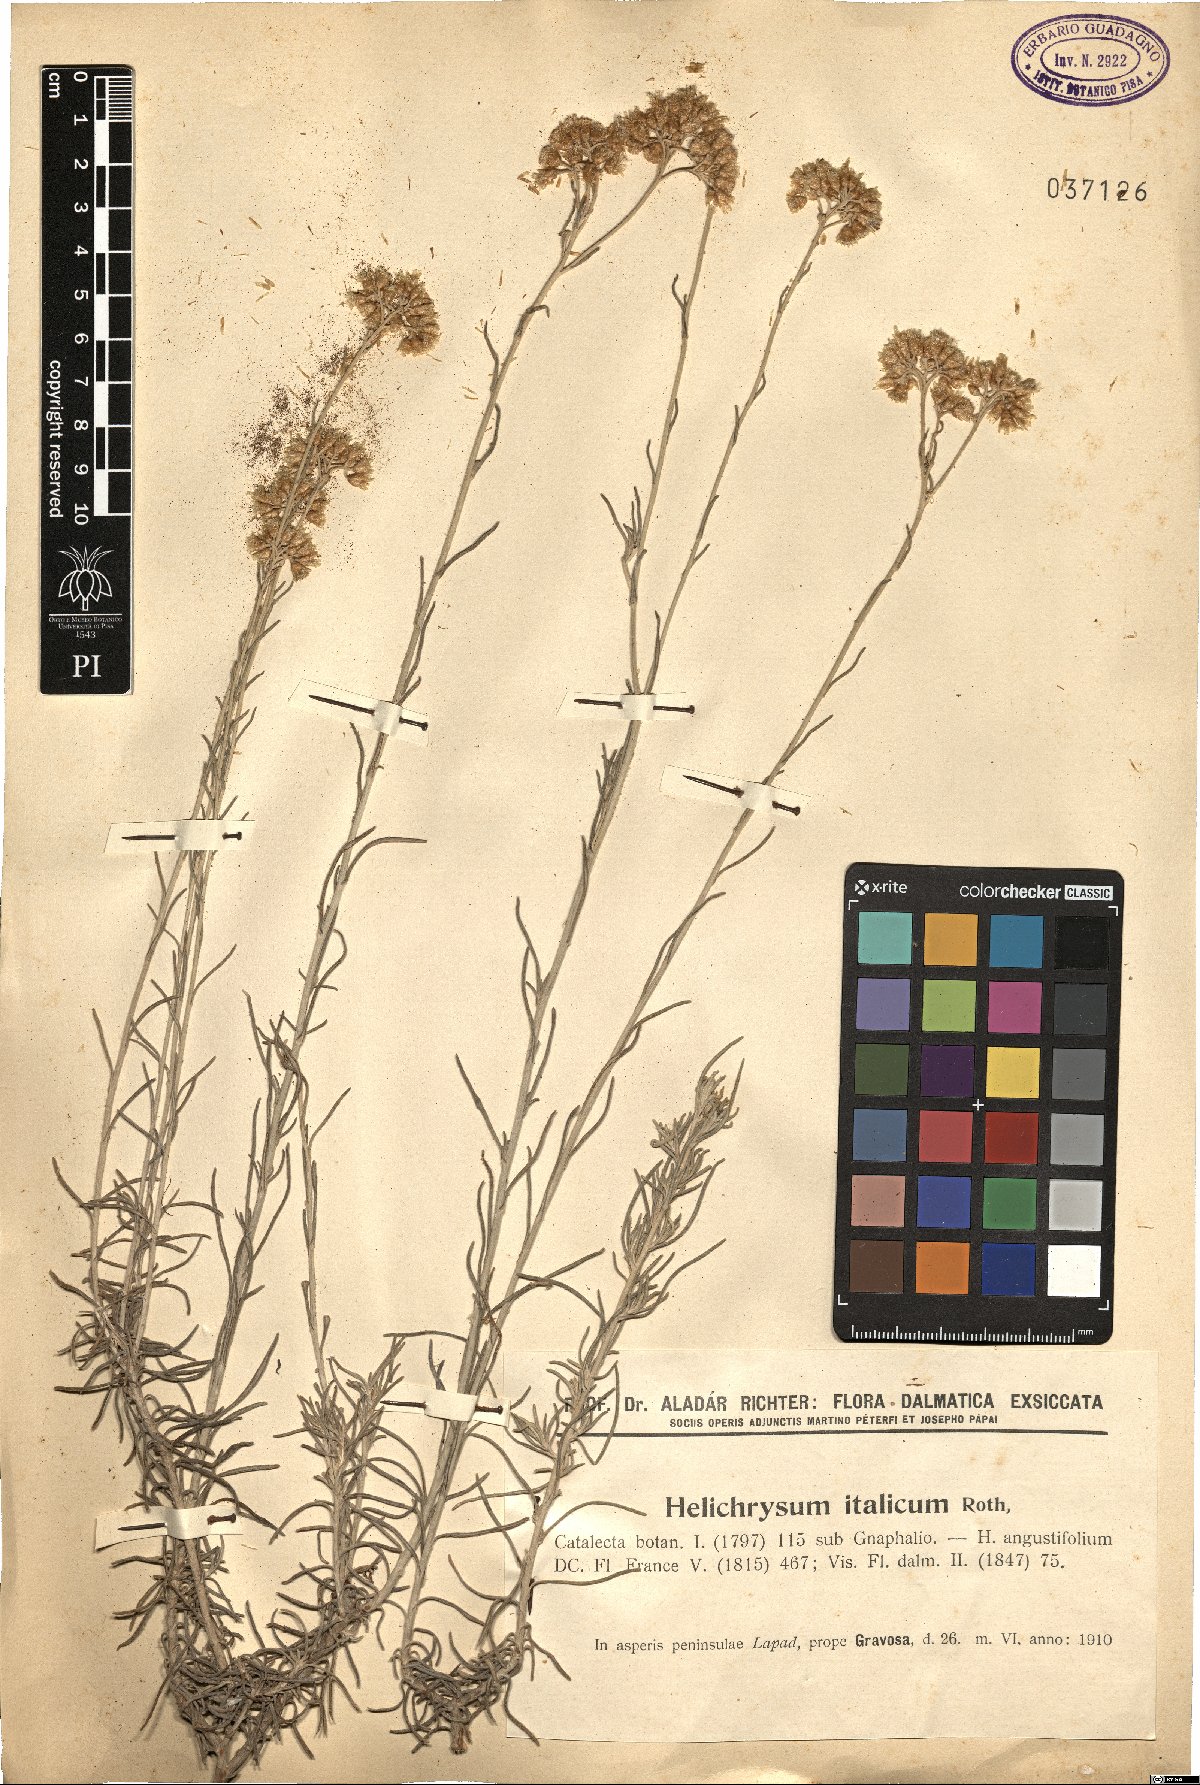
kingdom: Plantae
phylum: Tracheophyta
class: Magnoliopsida
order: Asterales
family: Asteraceae
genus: Helichrysum
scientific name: Helichrysum italicum
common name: Curryplant
